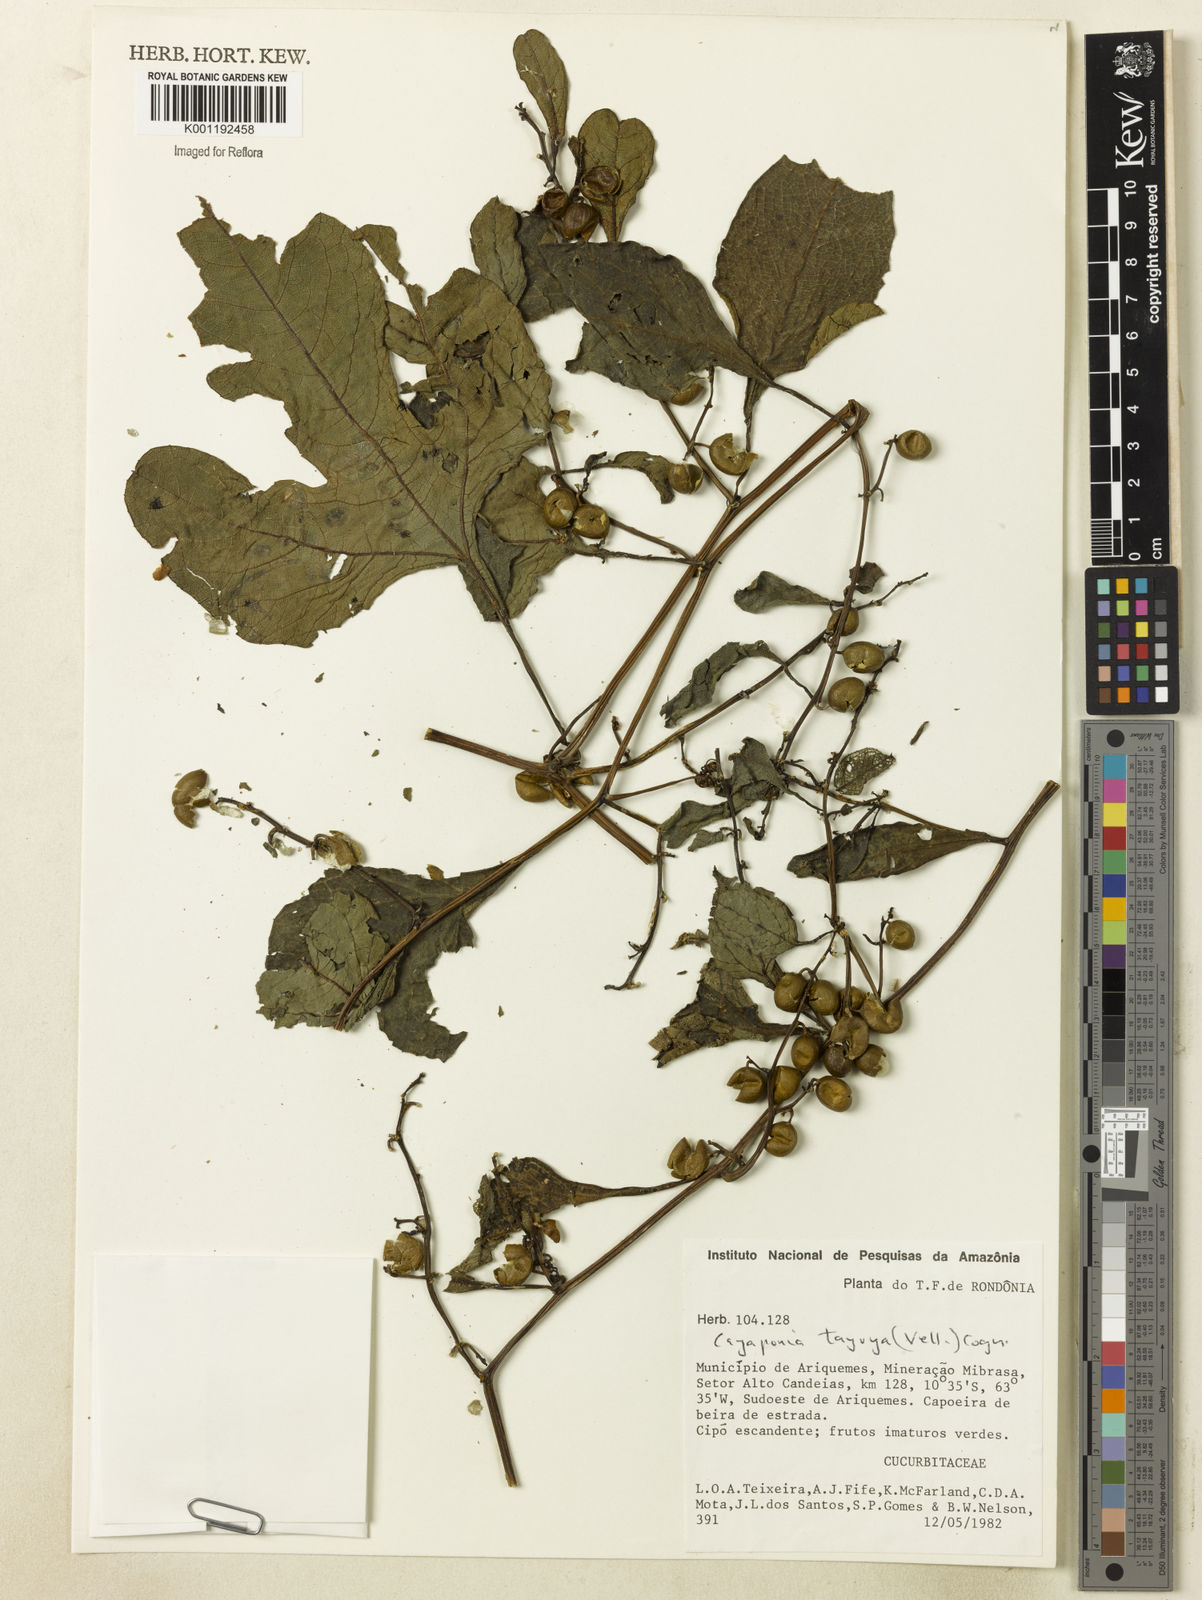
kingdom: Plantae
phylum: Tracheophyta
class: Magnoliopsida
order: Cucurbitales
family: Cucurbitaceae
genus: Cayaponia
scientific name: Cayaponia tayuya
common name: Tayuya
